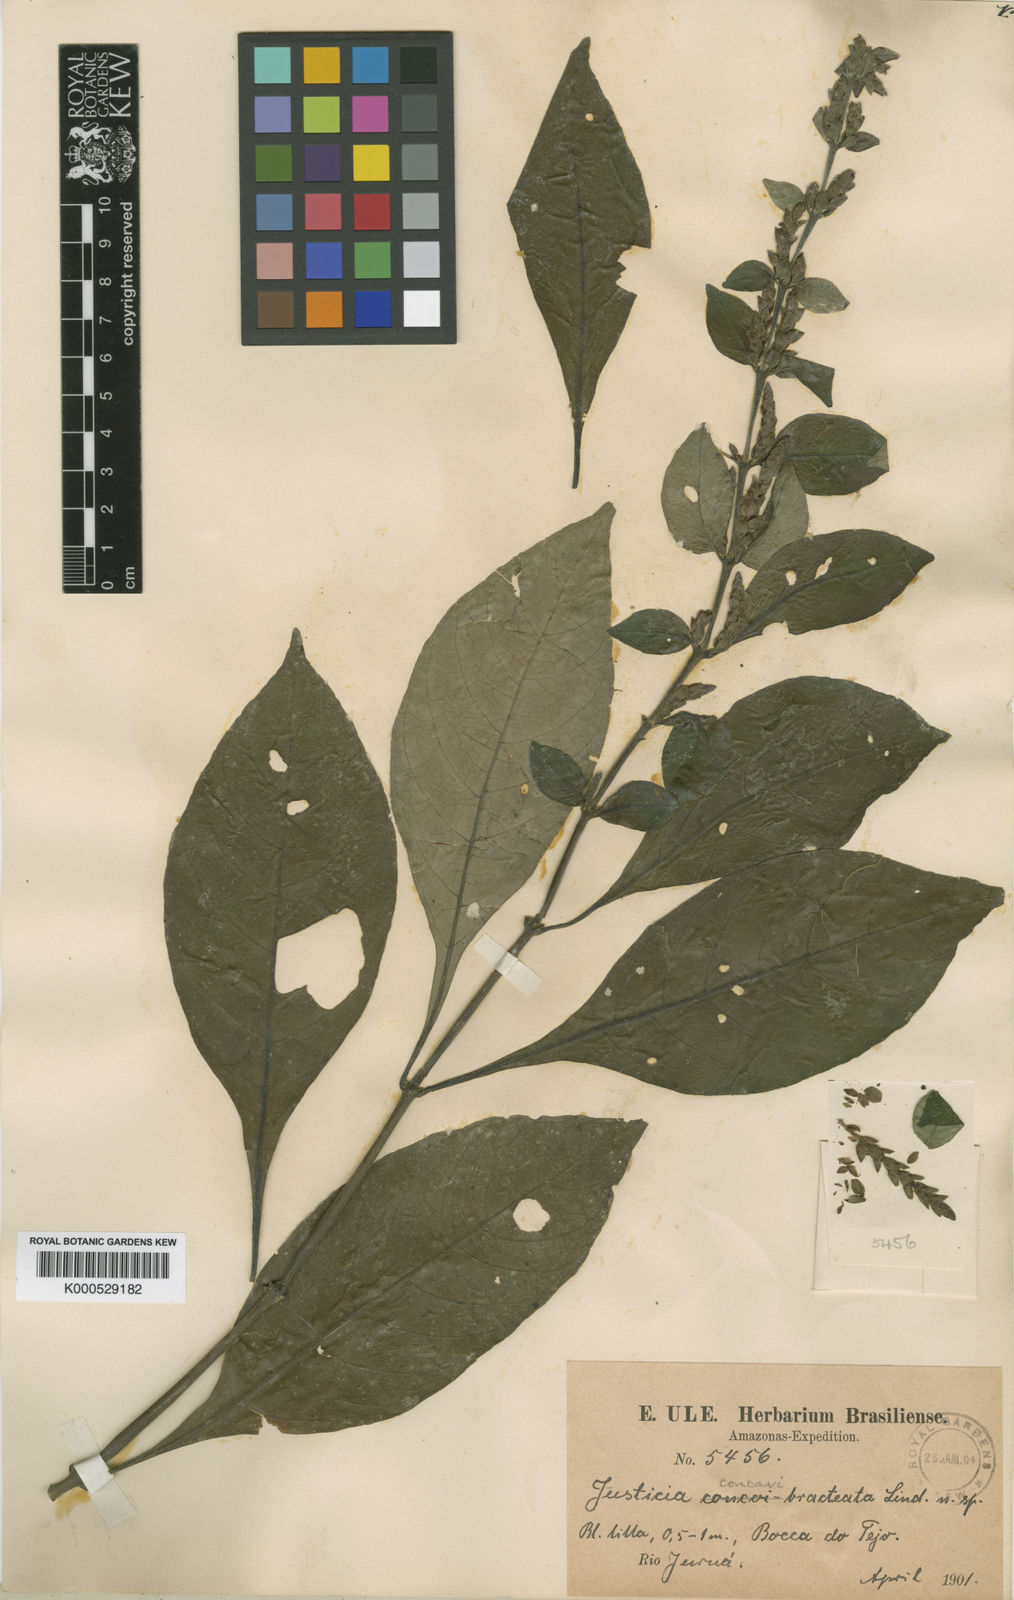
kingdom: Plantae
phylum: Tracheophyta
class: Magnoliopsida
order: Lamiales
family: Acanthaceae
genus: Justicia
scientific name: Justicia concavibracteata
